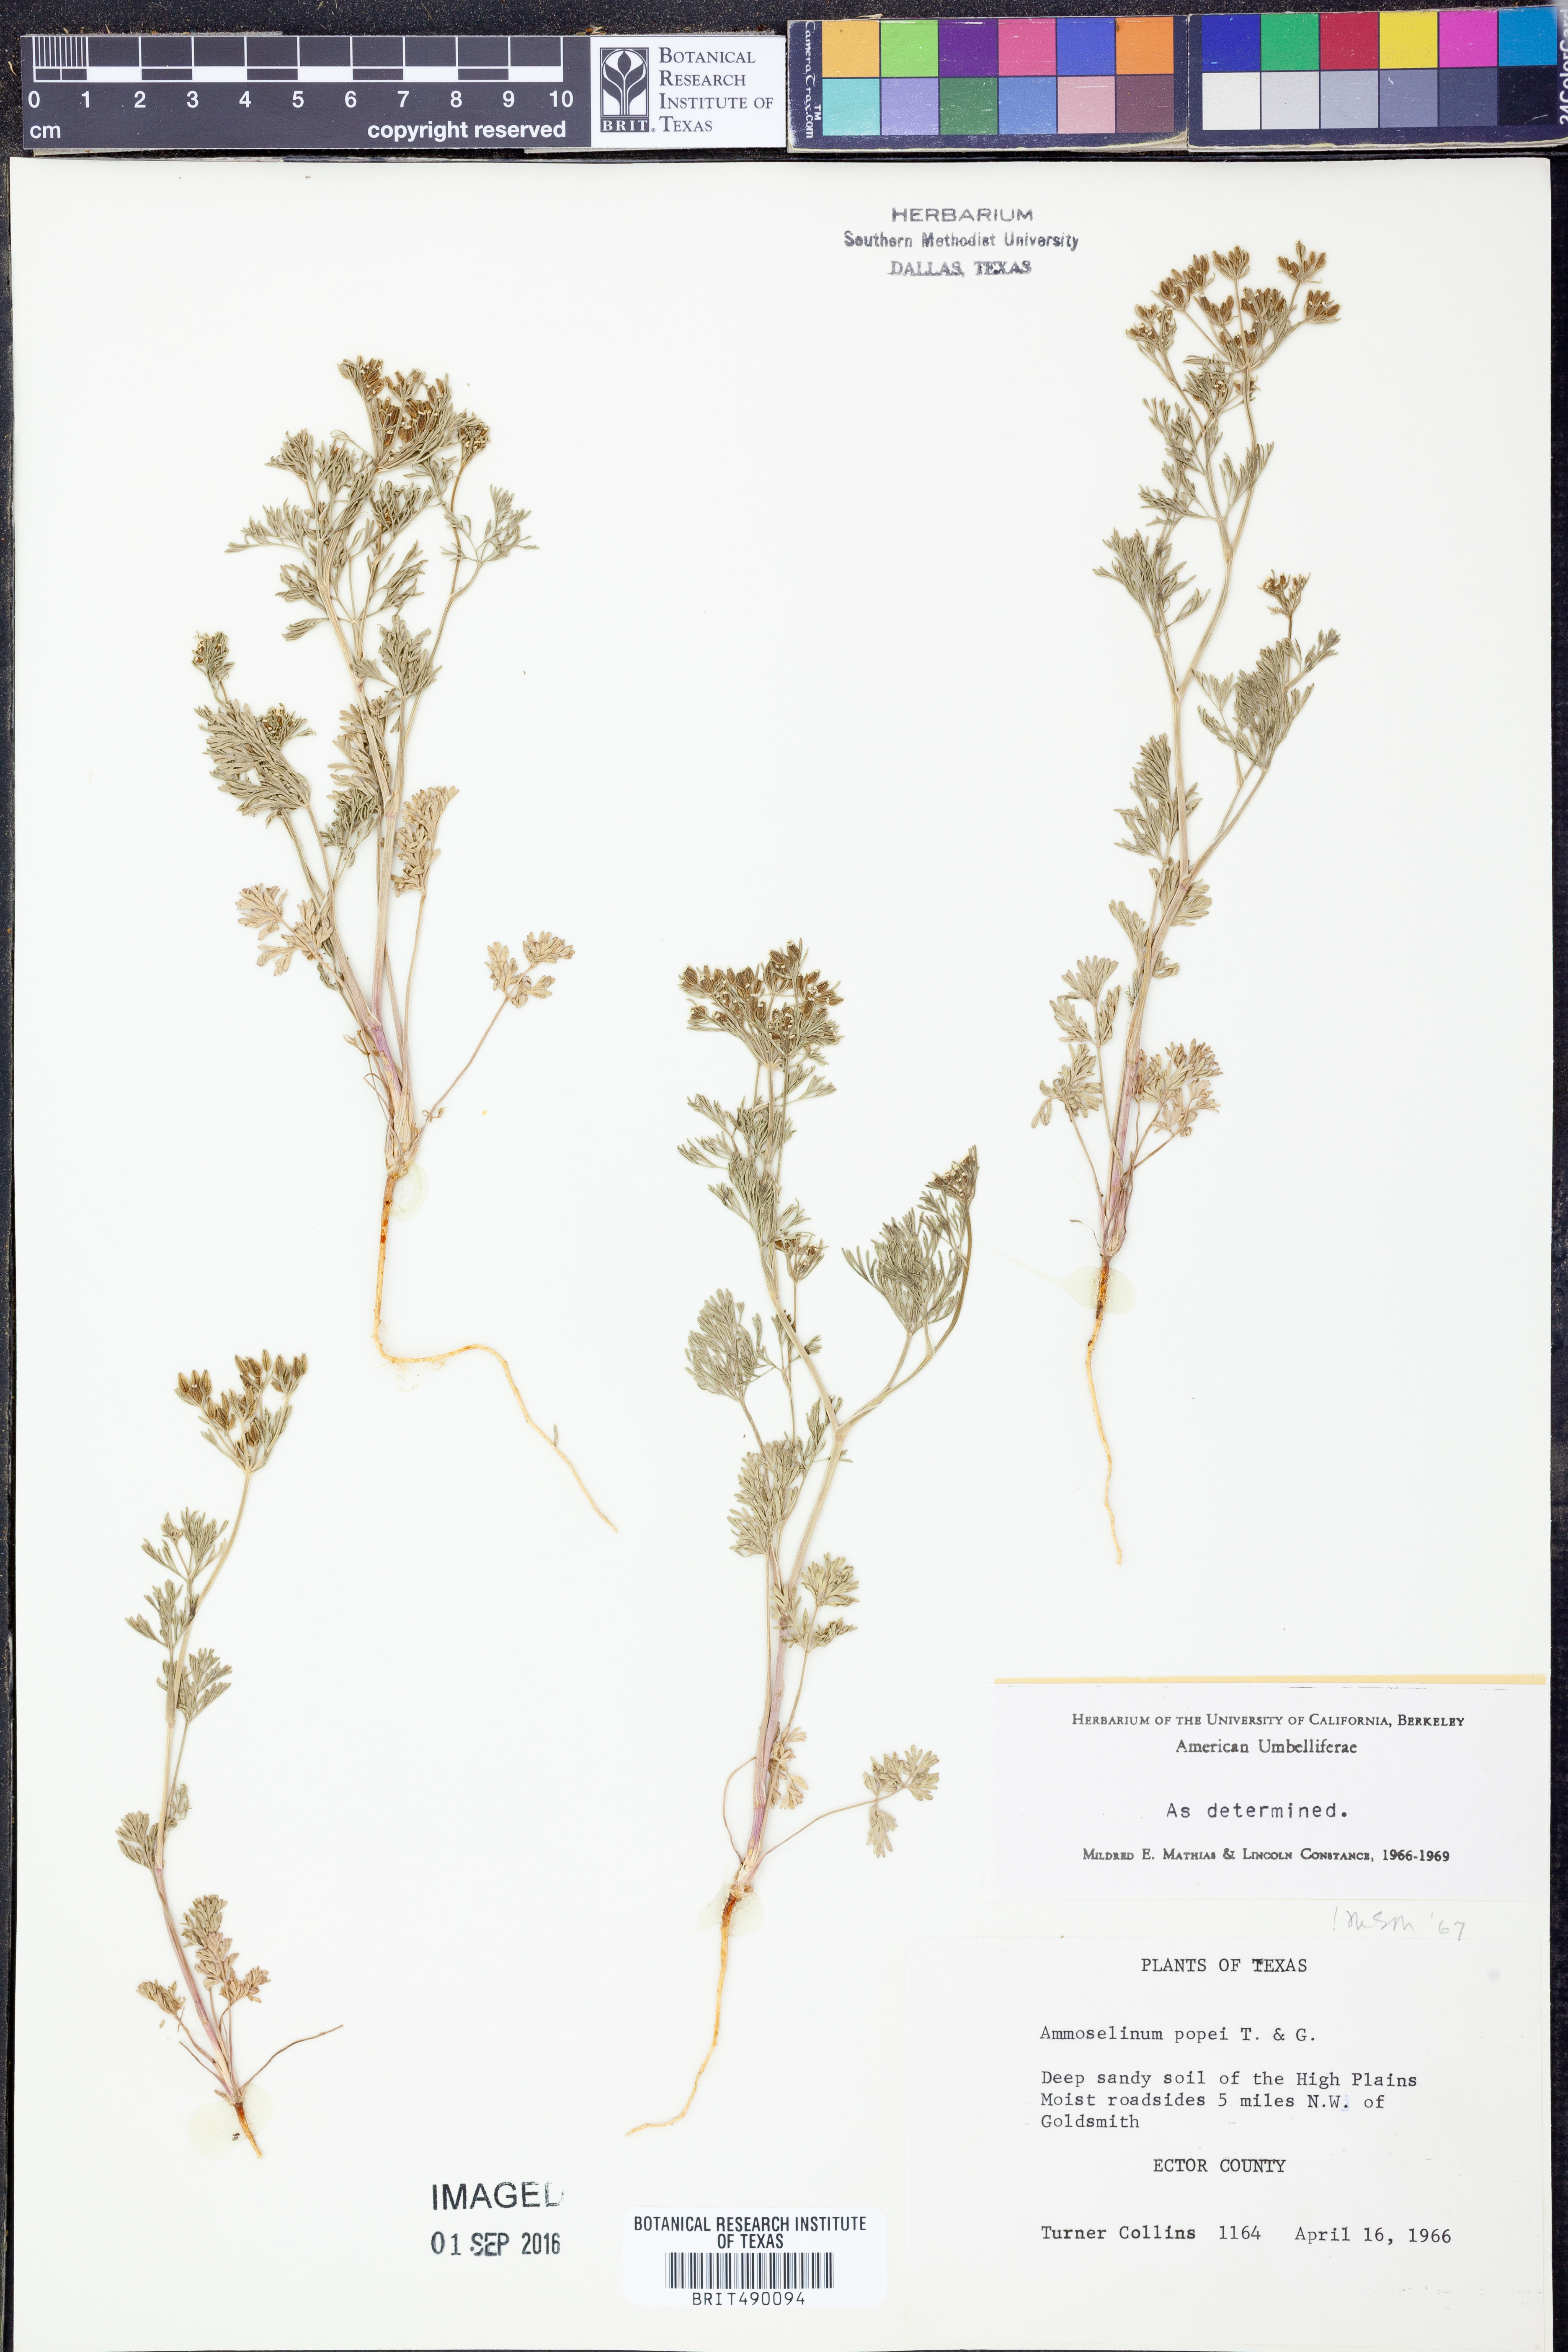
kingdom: Plantae
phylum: Tracheophyta
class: Magnoliopsida
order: Apiales
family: Apiaceae
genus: Ammoselinum
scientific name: Ammoselinum popei
